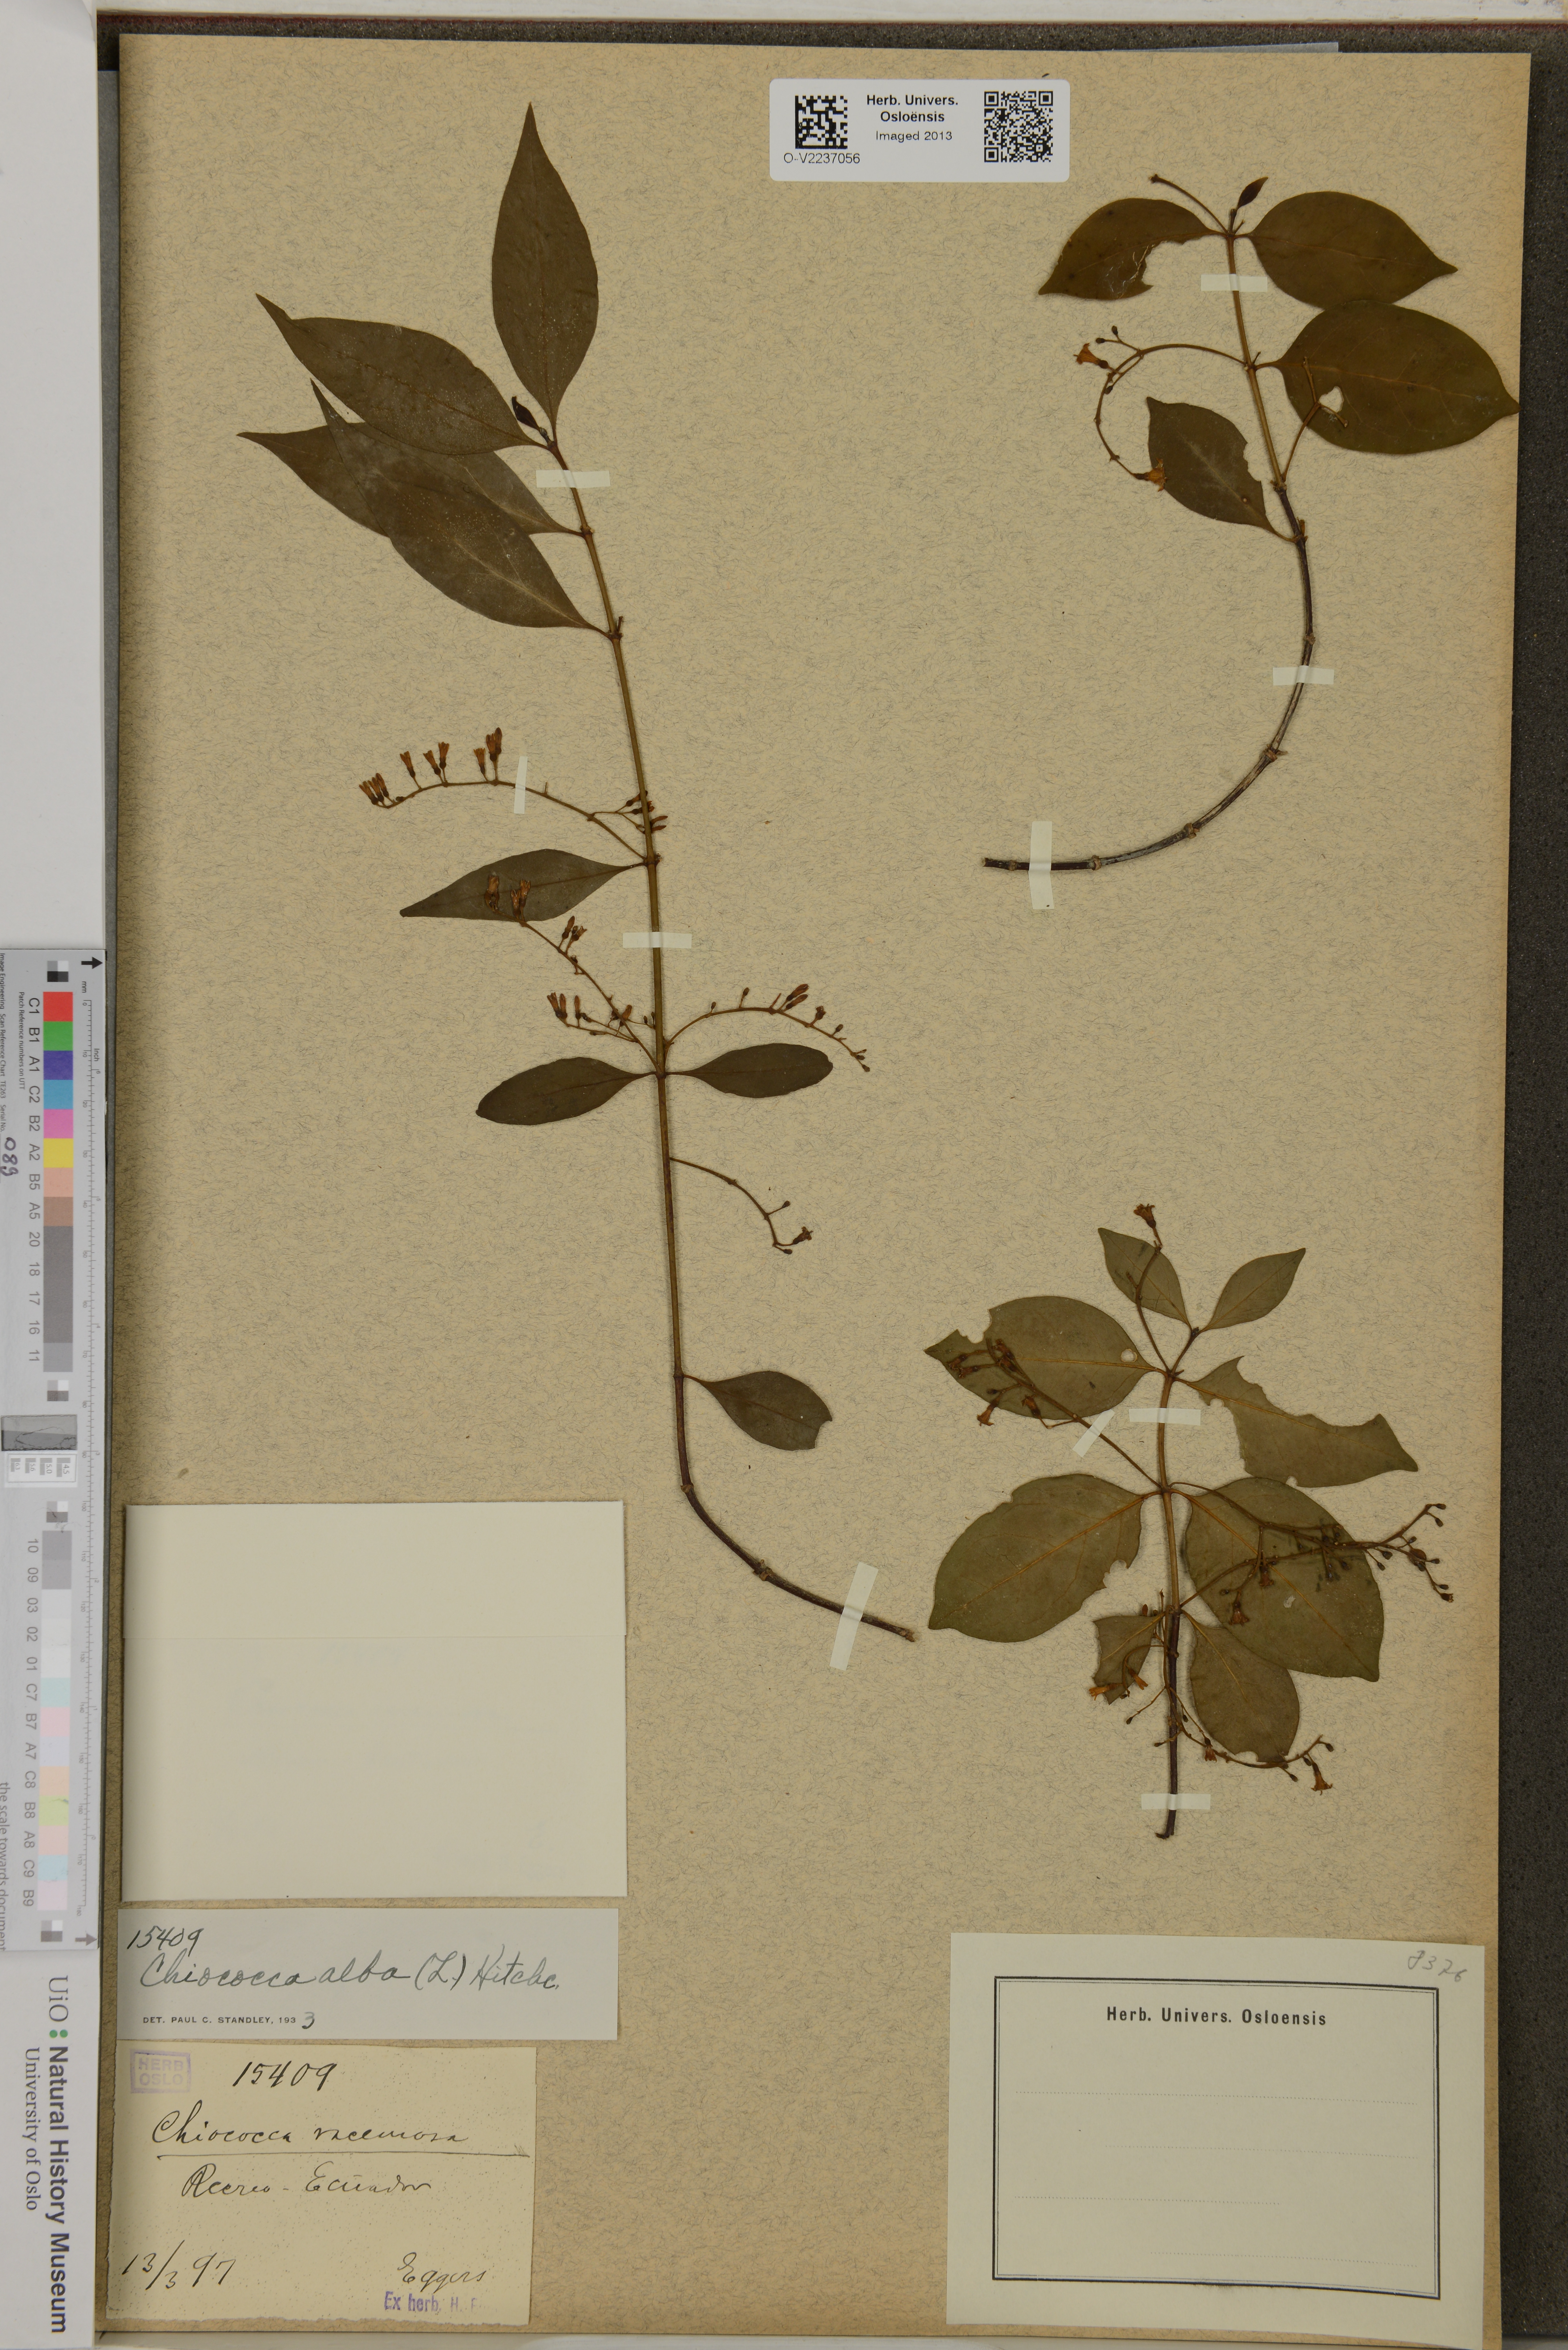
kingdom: Plantae
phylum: Tracheophyta
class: Magnoliopsida
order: Gentianales
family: Rubiaceae
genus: Chiococca
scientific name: Chiococca racemosa
